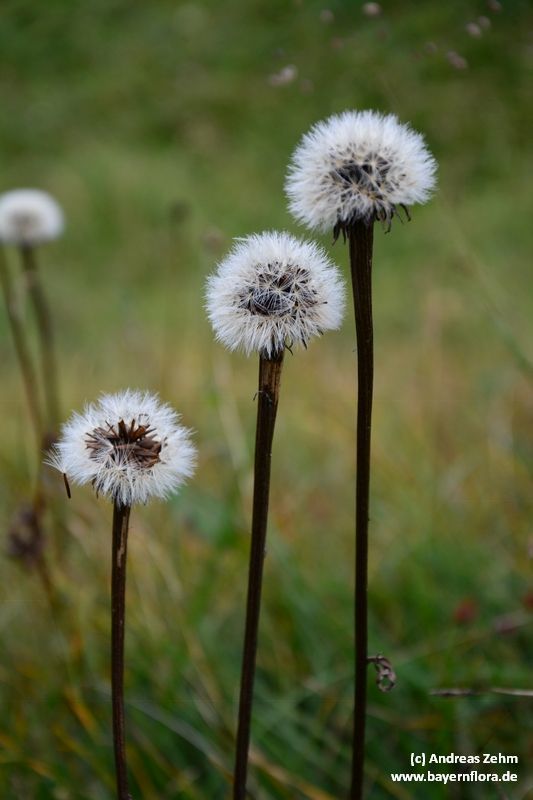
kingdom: Plantae
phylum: Tracheophyta
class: Magnoliopsida
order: Asterales
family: Asteraceae
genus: Trommsdorffia
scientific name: Trommsdorffia uniflora
